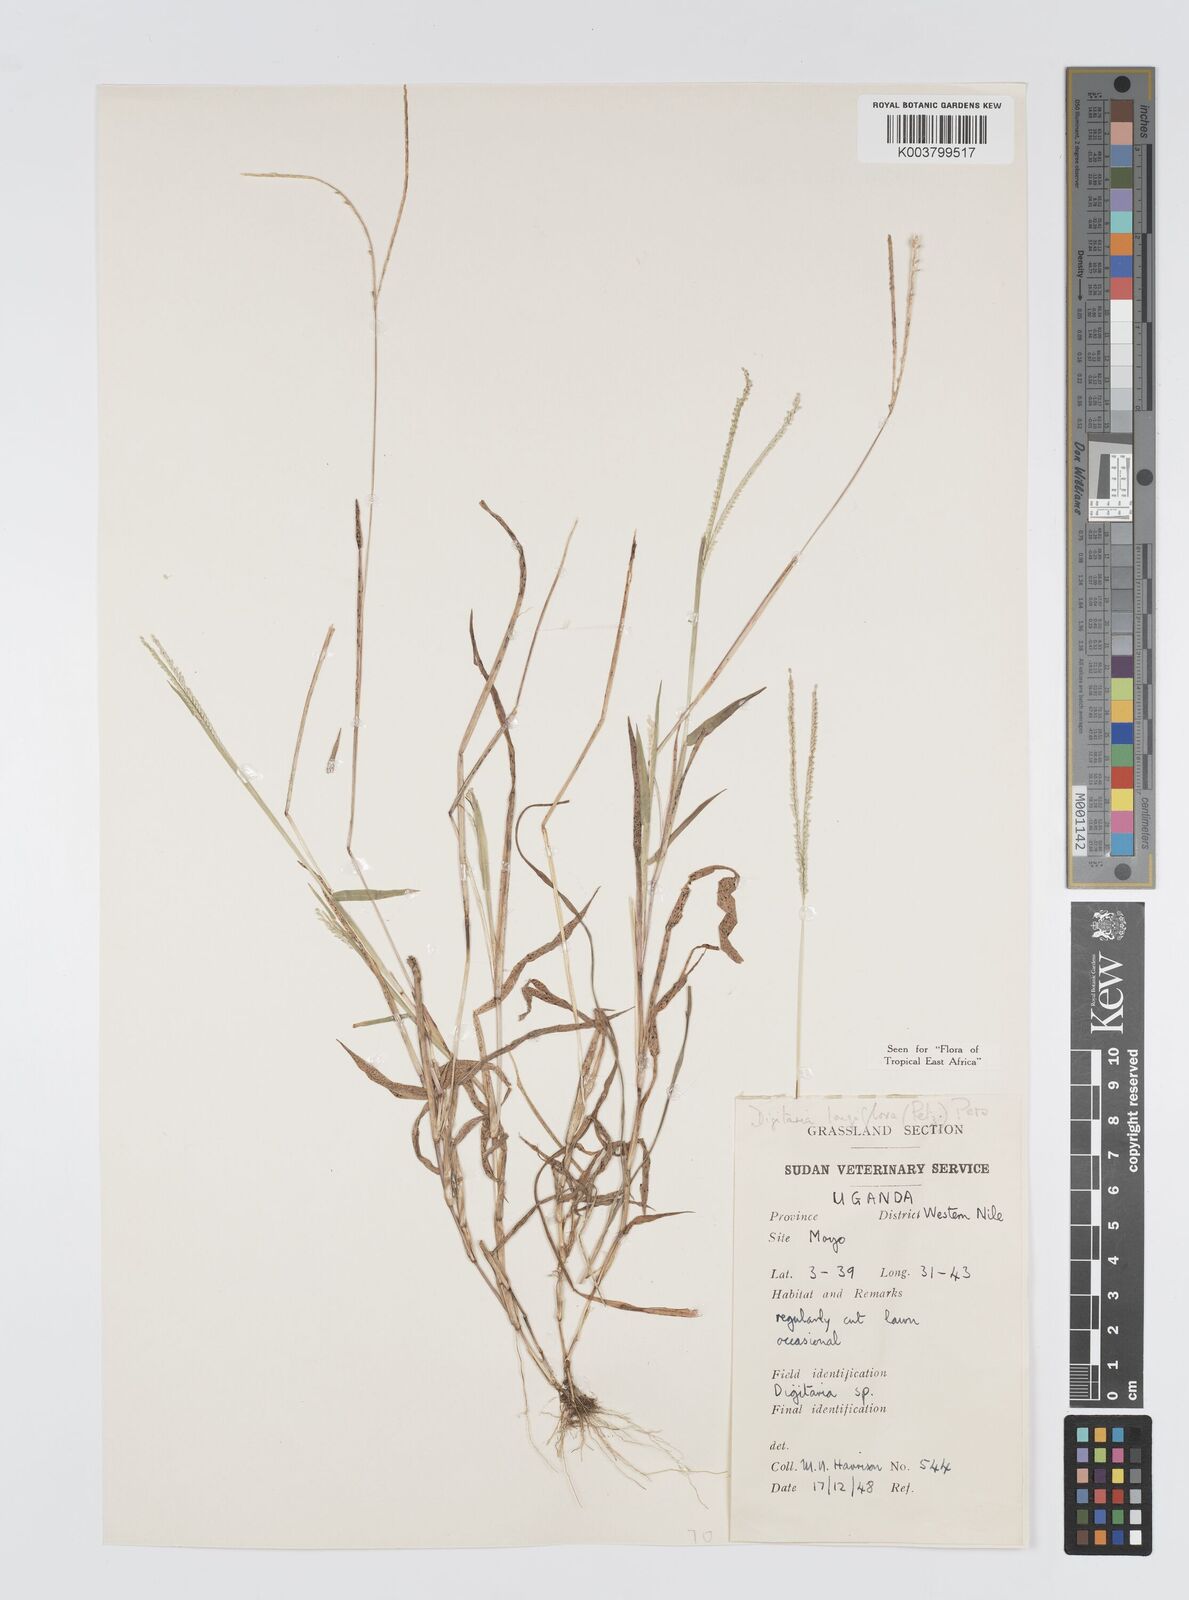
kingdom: Plantae
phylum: Tracheophyta
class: Liliopsida
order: Poales
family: Poaceae
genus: Digitaria
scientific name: Digitaria longiflora
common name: Wire crabgrass
